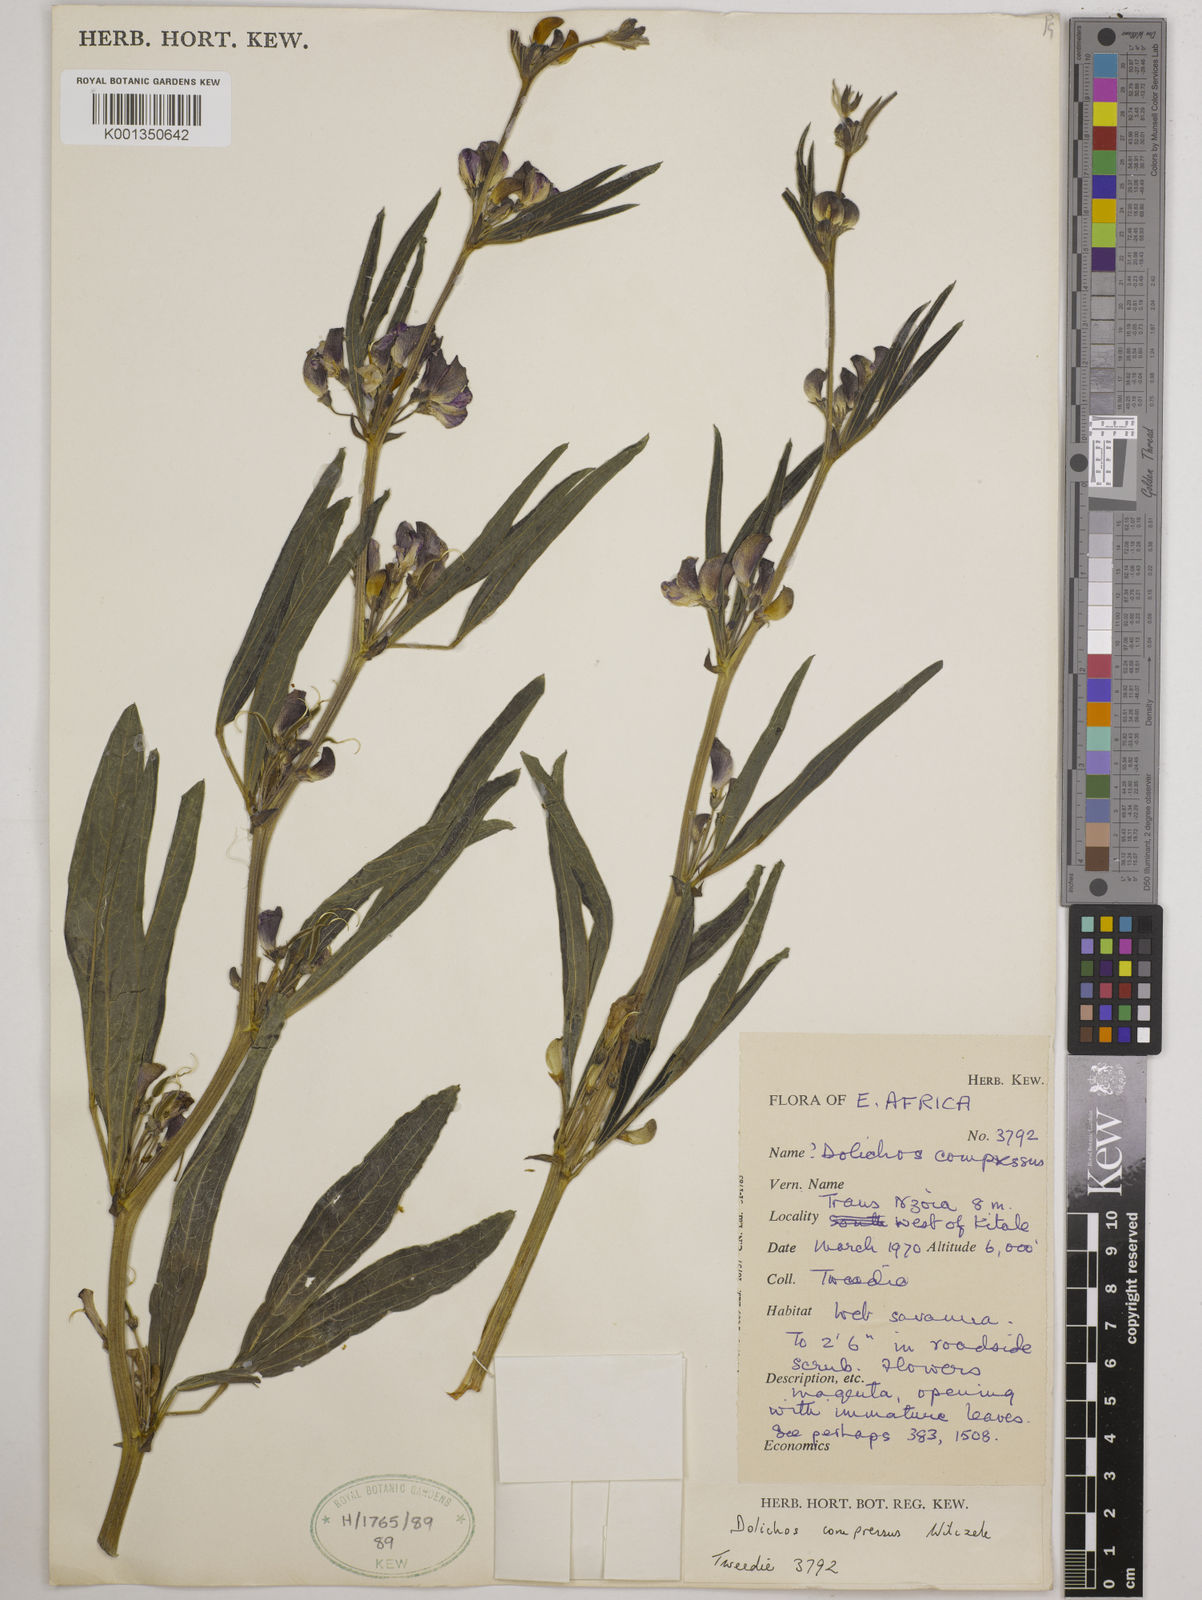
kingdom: Plantae
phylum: Tracheophyta
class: Magnoliopsida
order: Fabales
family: Fabaceae
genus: Dolichos
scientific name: Dolichos compressus
